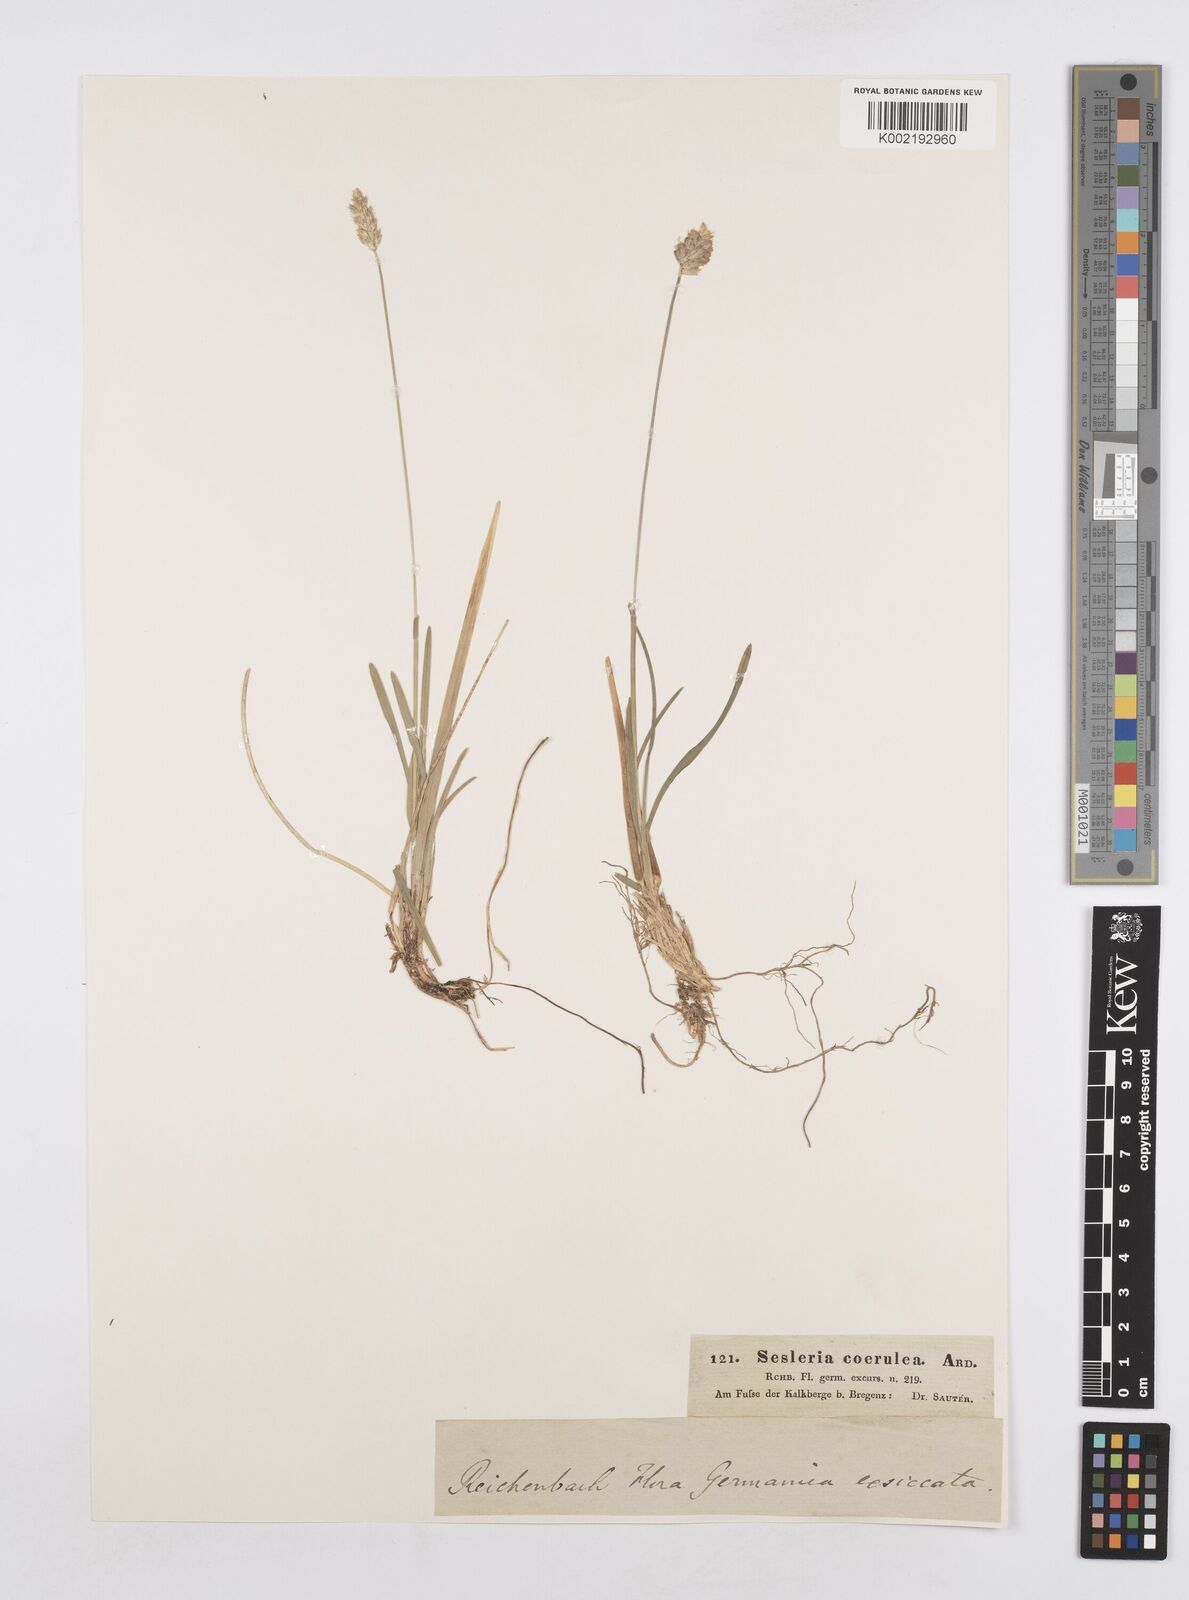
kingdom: Plantae
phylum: Tracheophyta
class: Liliopsida
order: Poales
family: Poaceae
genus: Sesleria
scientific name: Sesleria caerulea
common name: Blue moor-grass
